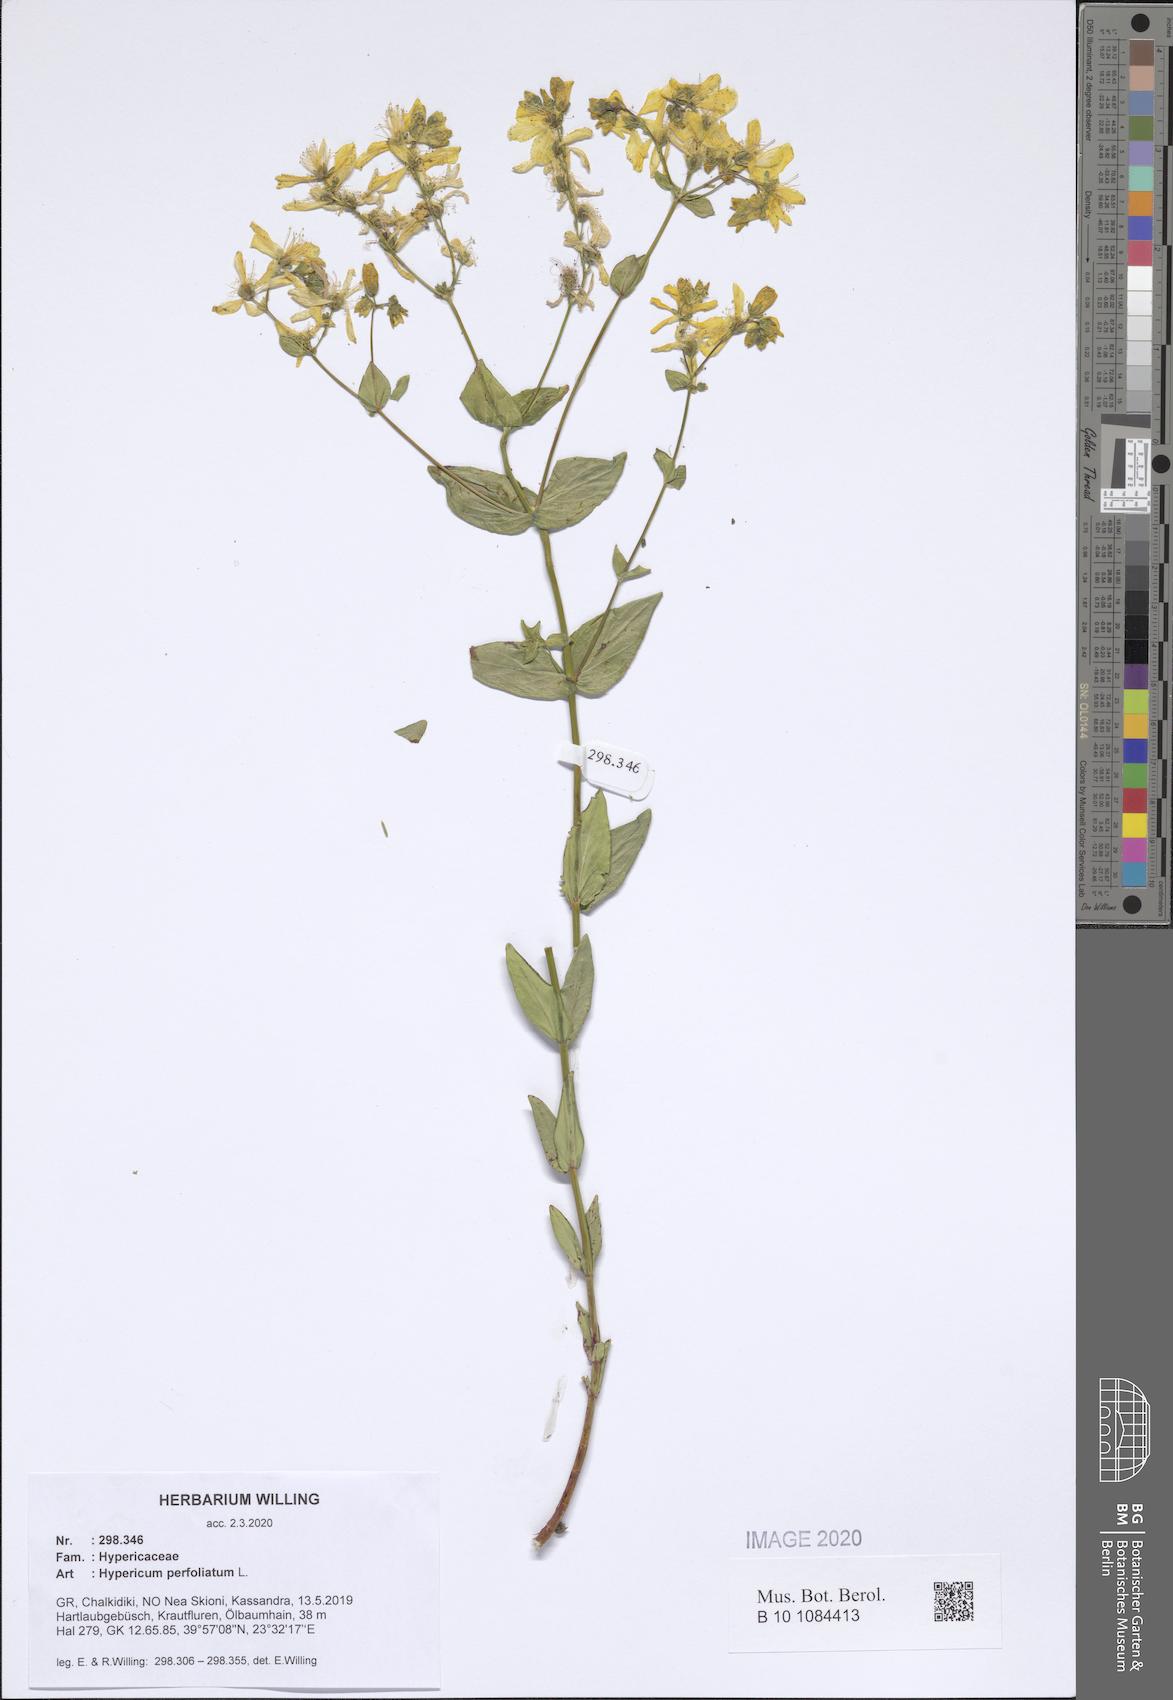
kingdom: Plantae
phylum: Tracheophyta
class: Magnoliopsida
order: Malpighiales
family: Hypericaceae
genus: Hypericum
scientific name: Hypericum perfoliatum
